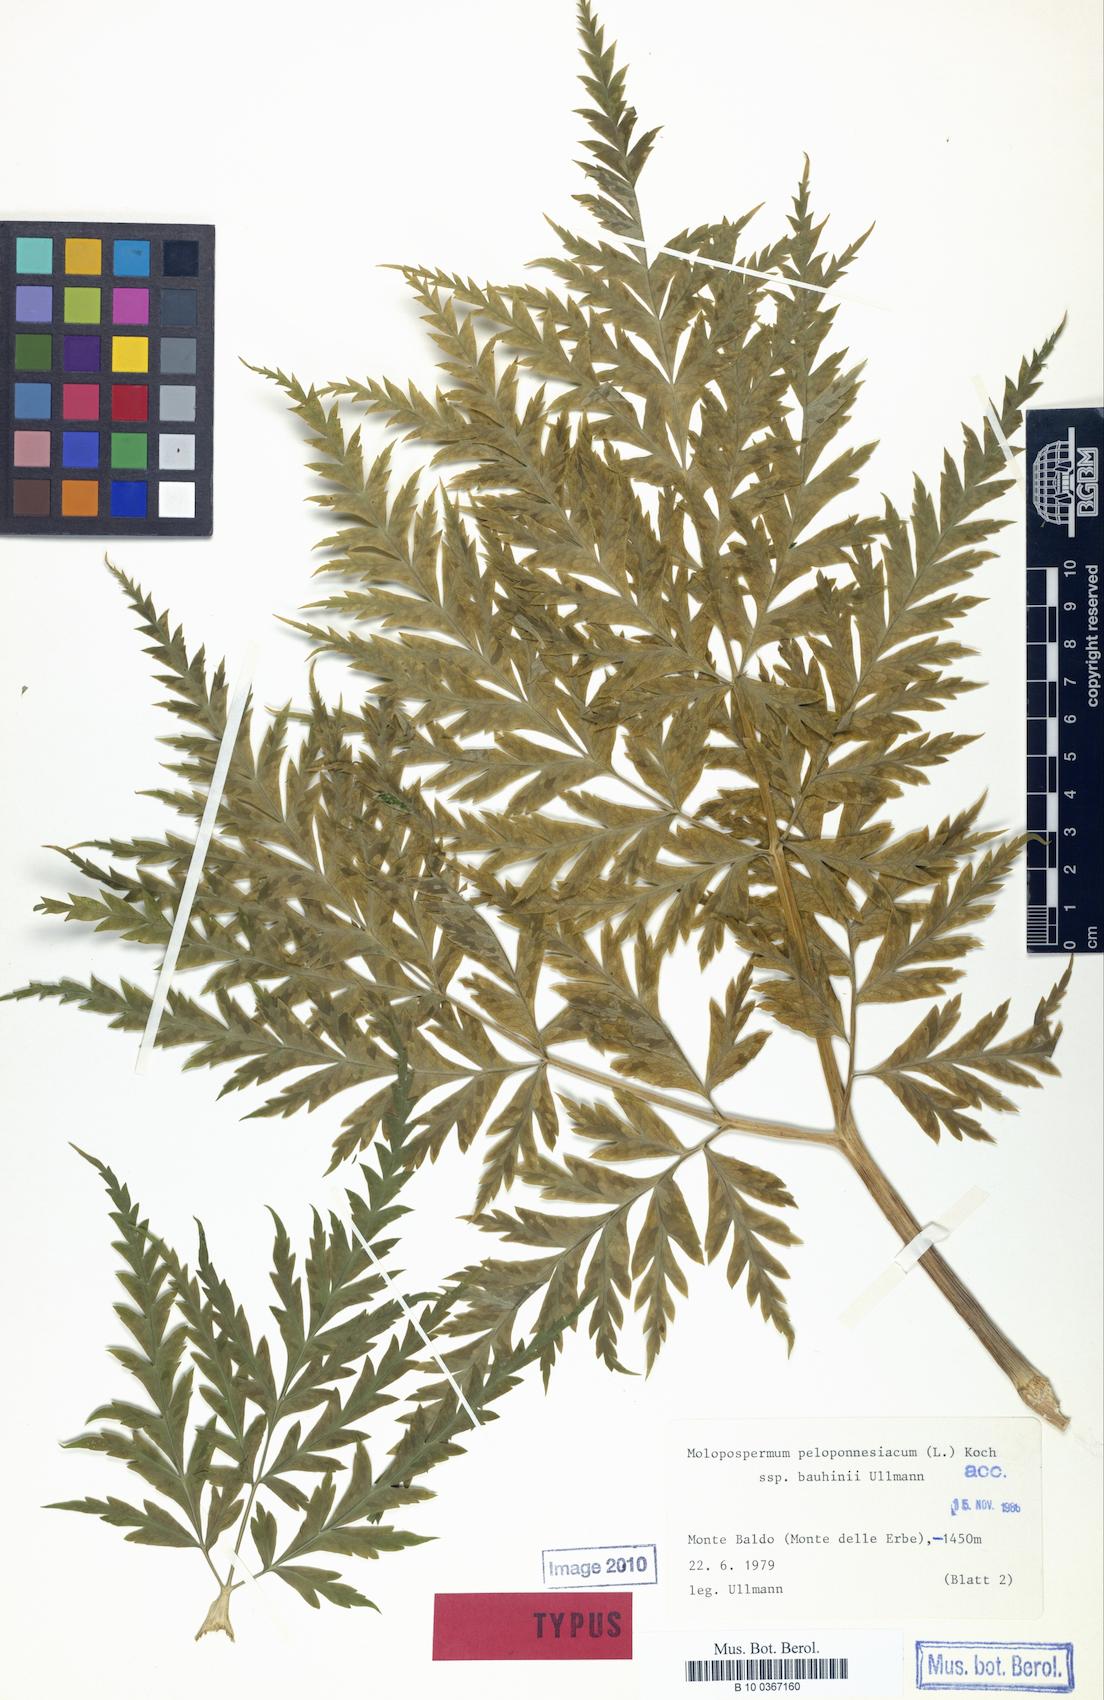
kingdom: Plantae
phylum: Tracheophyta
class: Magnoliopsida
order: Apiales
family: Apiaceae
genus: Molopospermum
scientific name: Molopospermum peloponnesiacum
